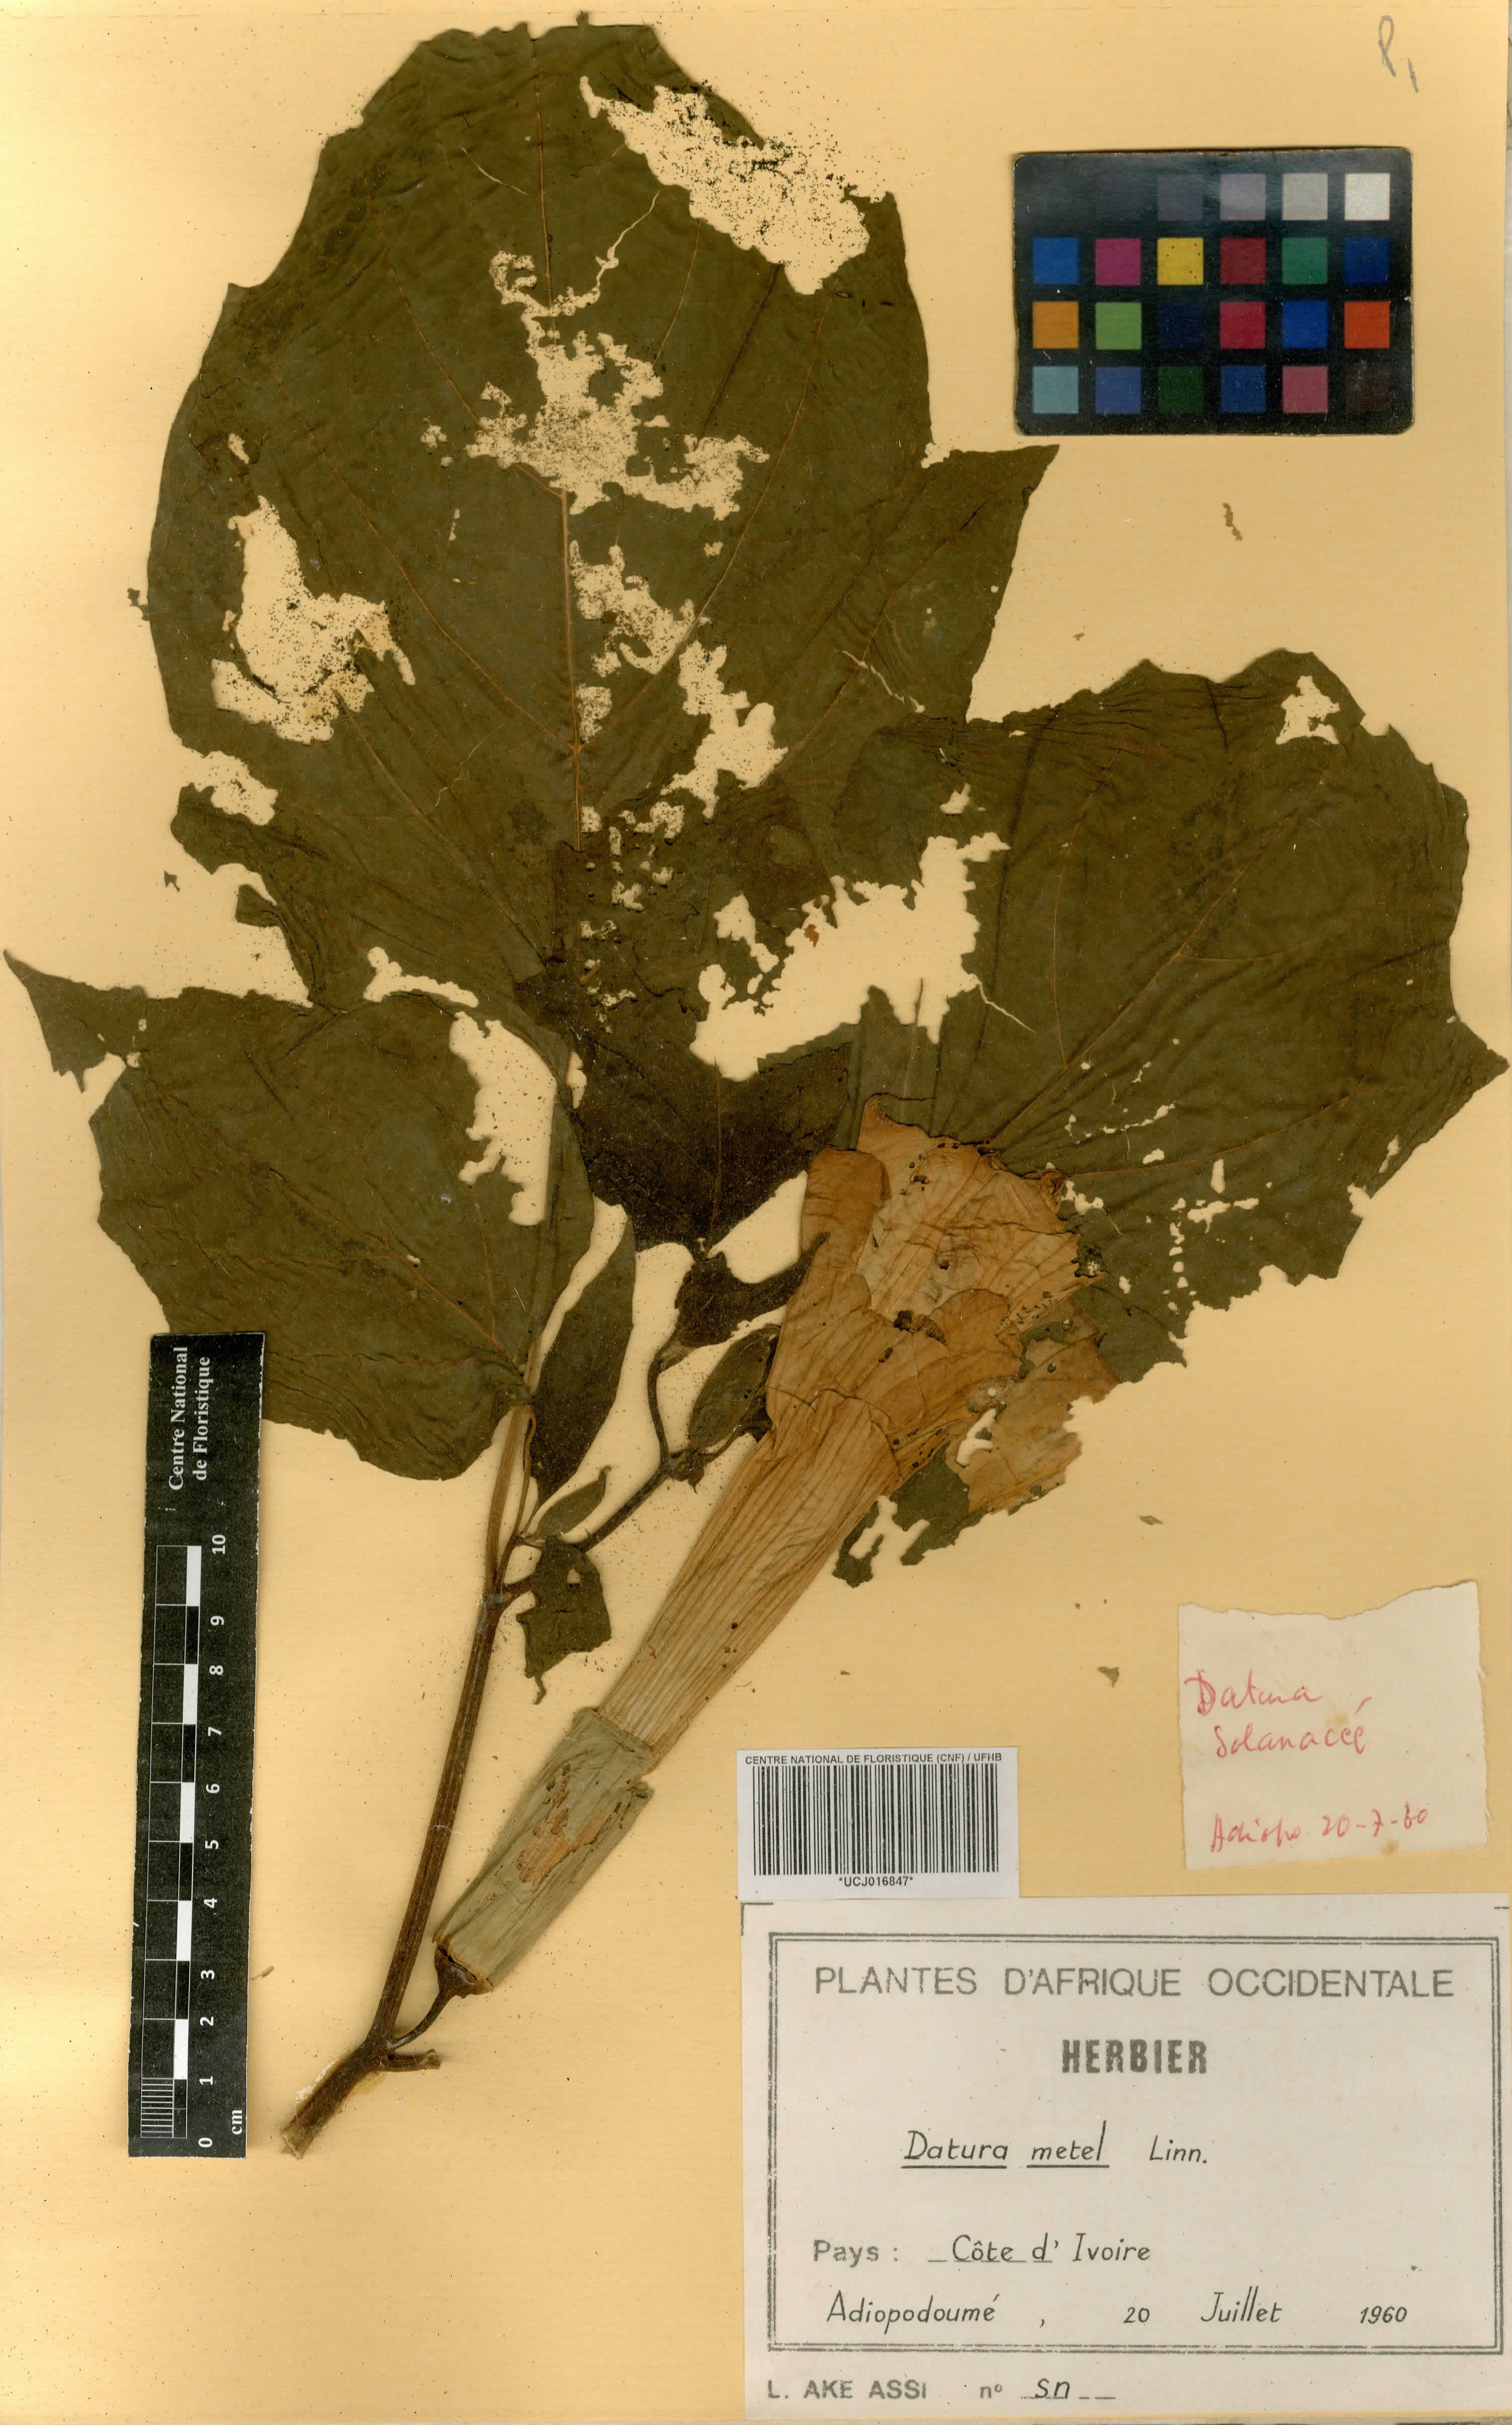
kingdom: Plantae
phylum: Tracheophyta
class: Magnoliopsida
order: Solanales
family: Solanaceae
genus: Datura
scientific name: Datura metel
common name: Jimsonweed
